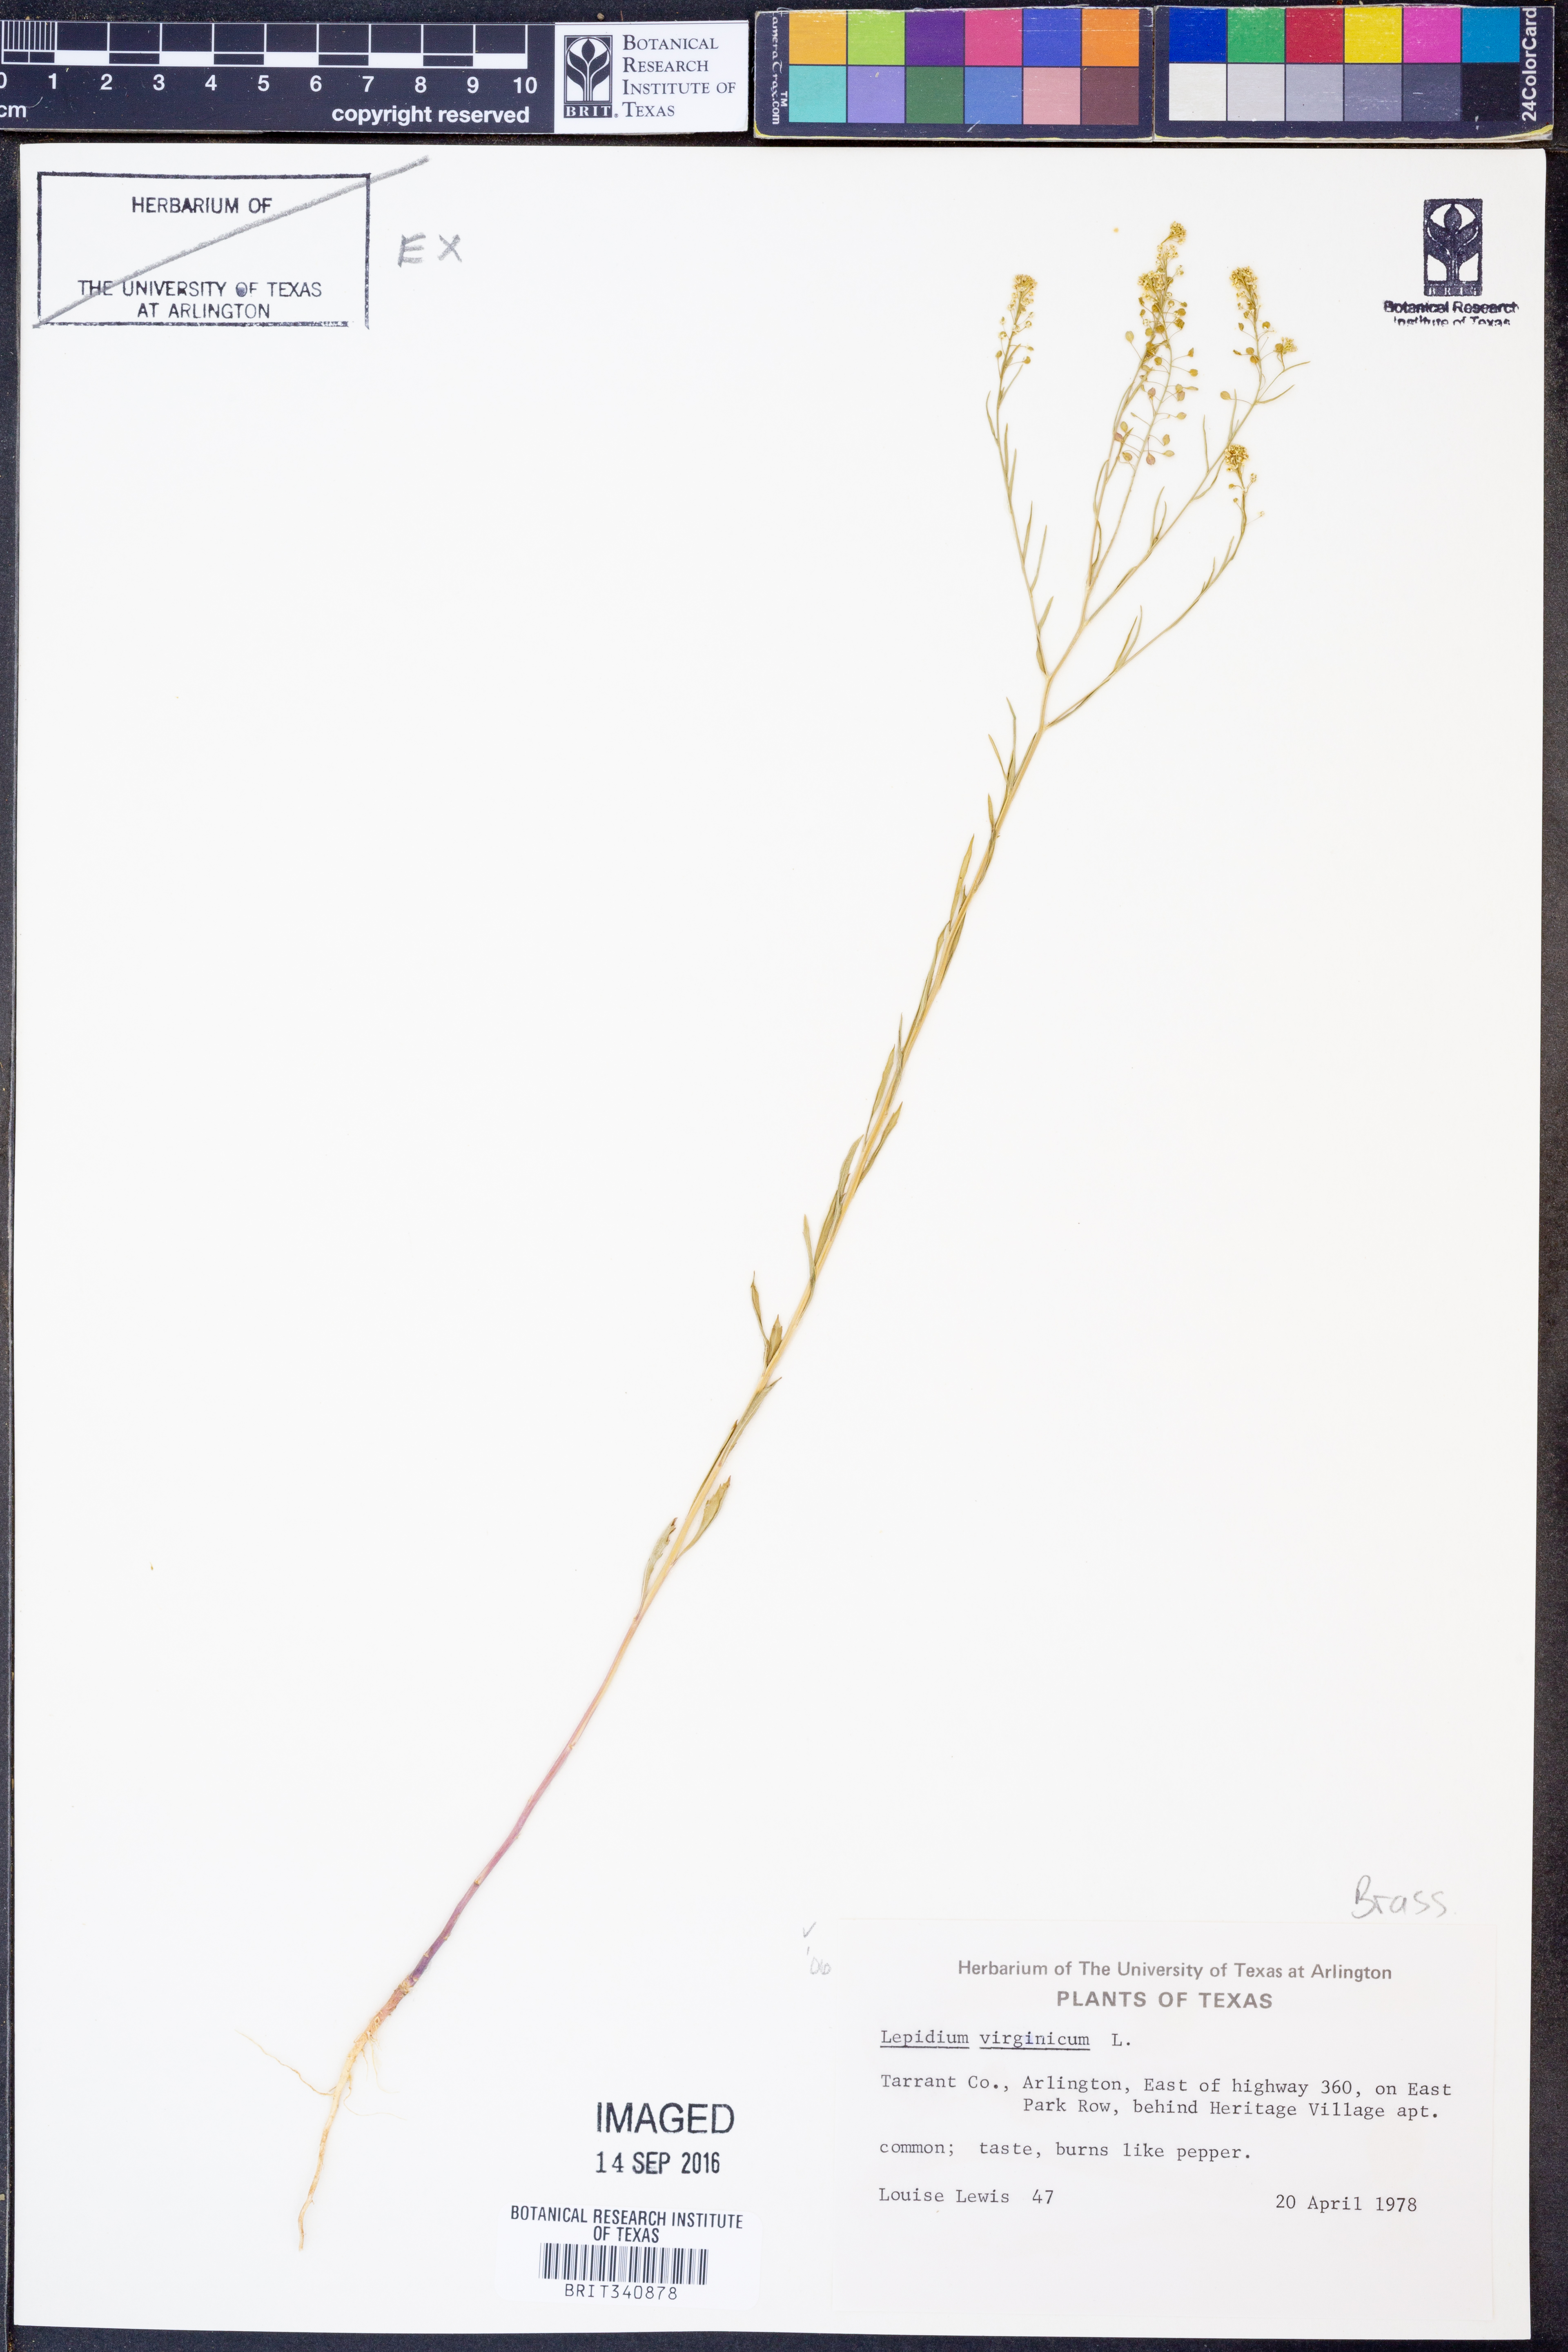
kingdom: Plantae
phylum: Tracheophyta
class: Magnoliopsida
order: Brassicales
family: Brassicaceae
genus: Lepidium
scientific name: Lepidium virginicum
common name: Least pepperwort
